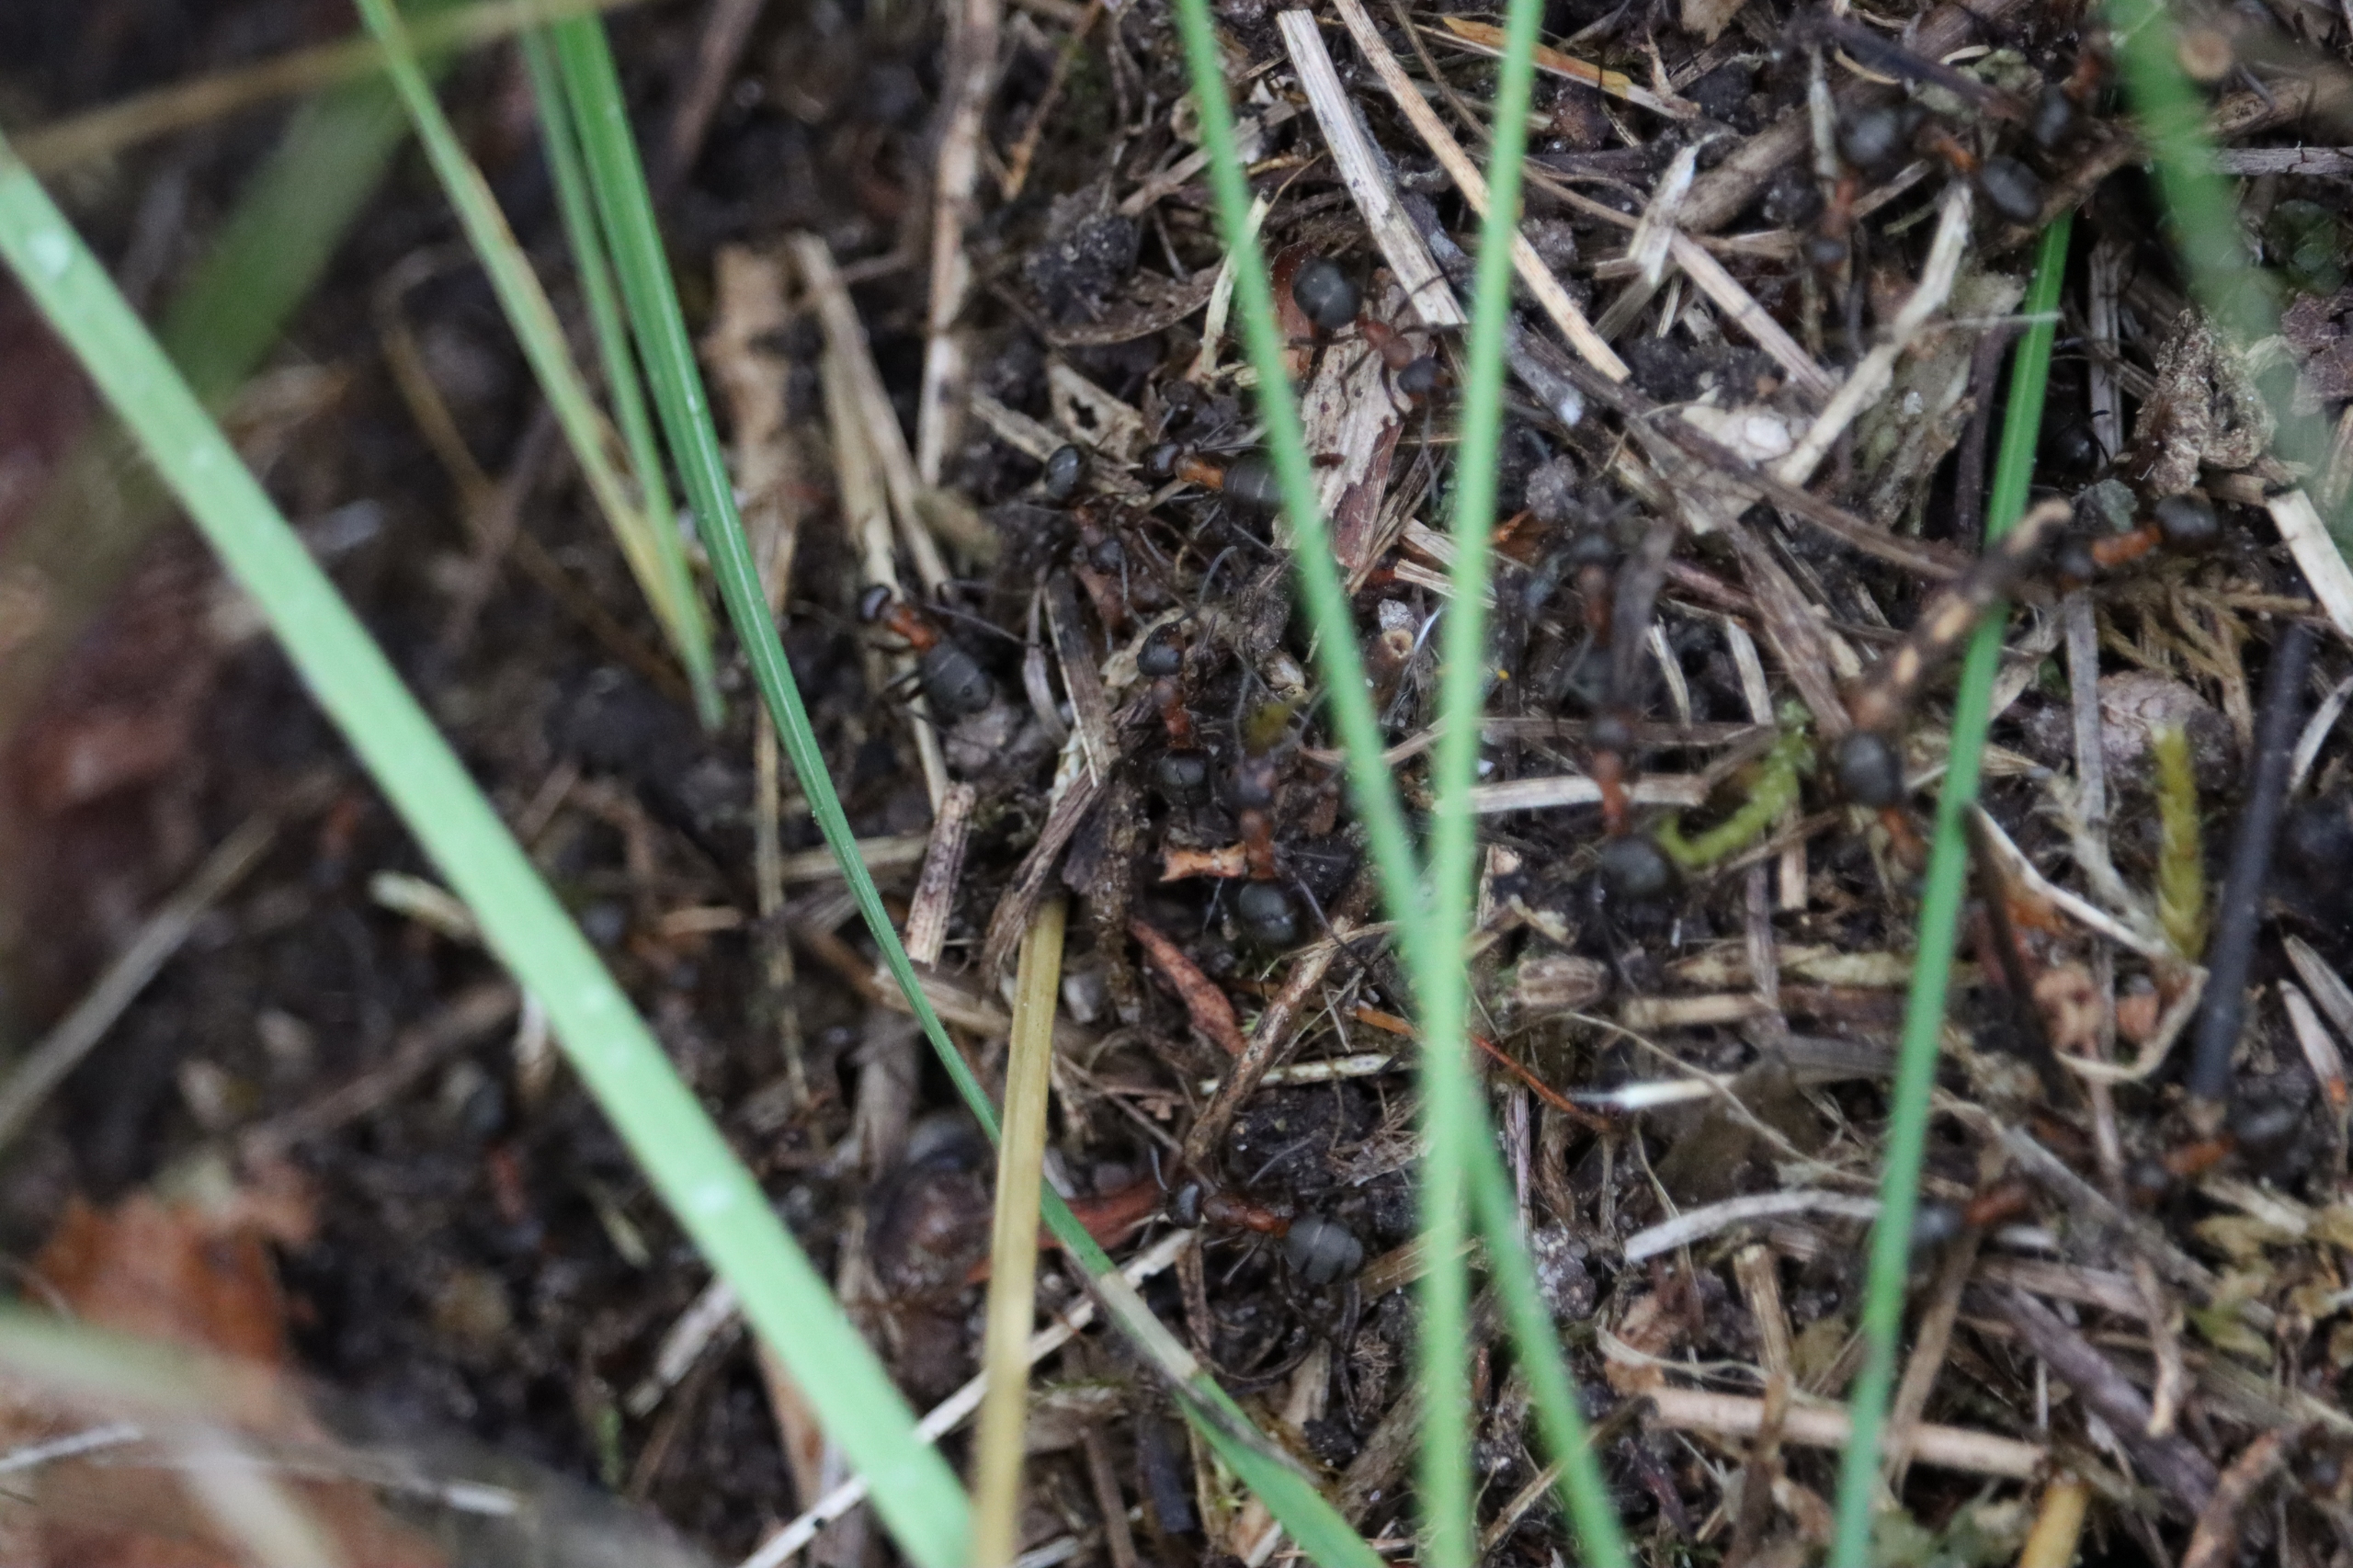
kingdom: Animalia
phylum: Arthropoda
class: Insecta
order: Hymenoptera
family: Formicidae
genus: Formica
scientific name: Formica
